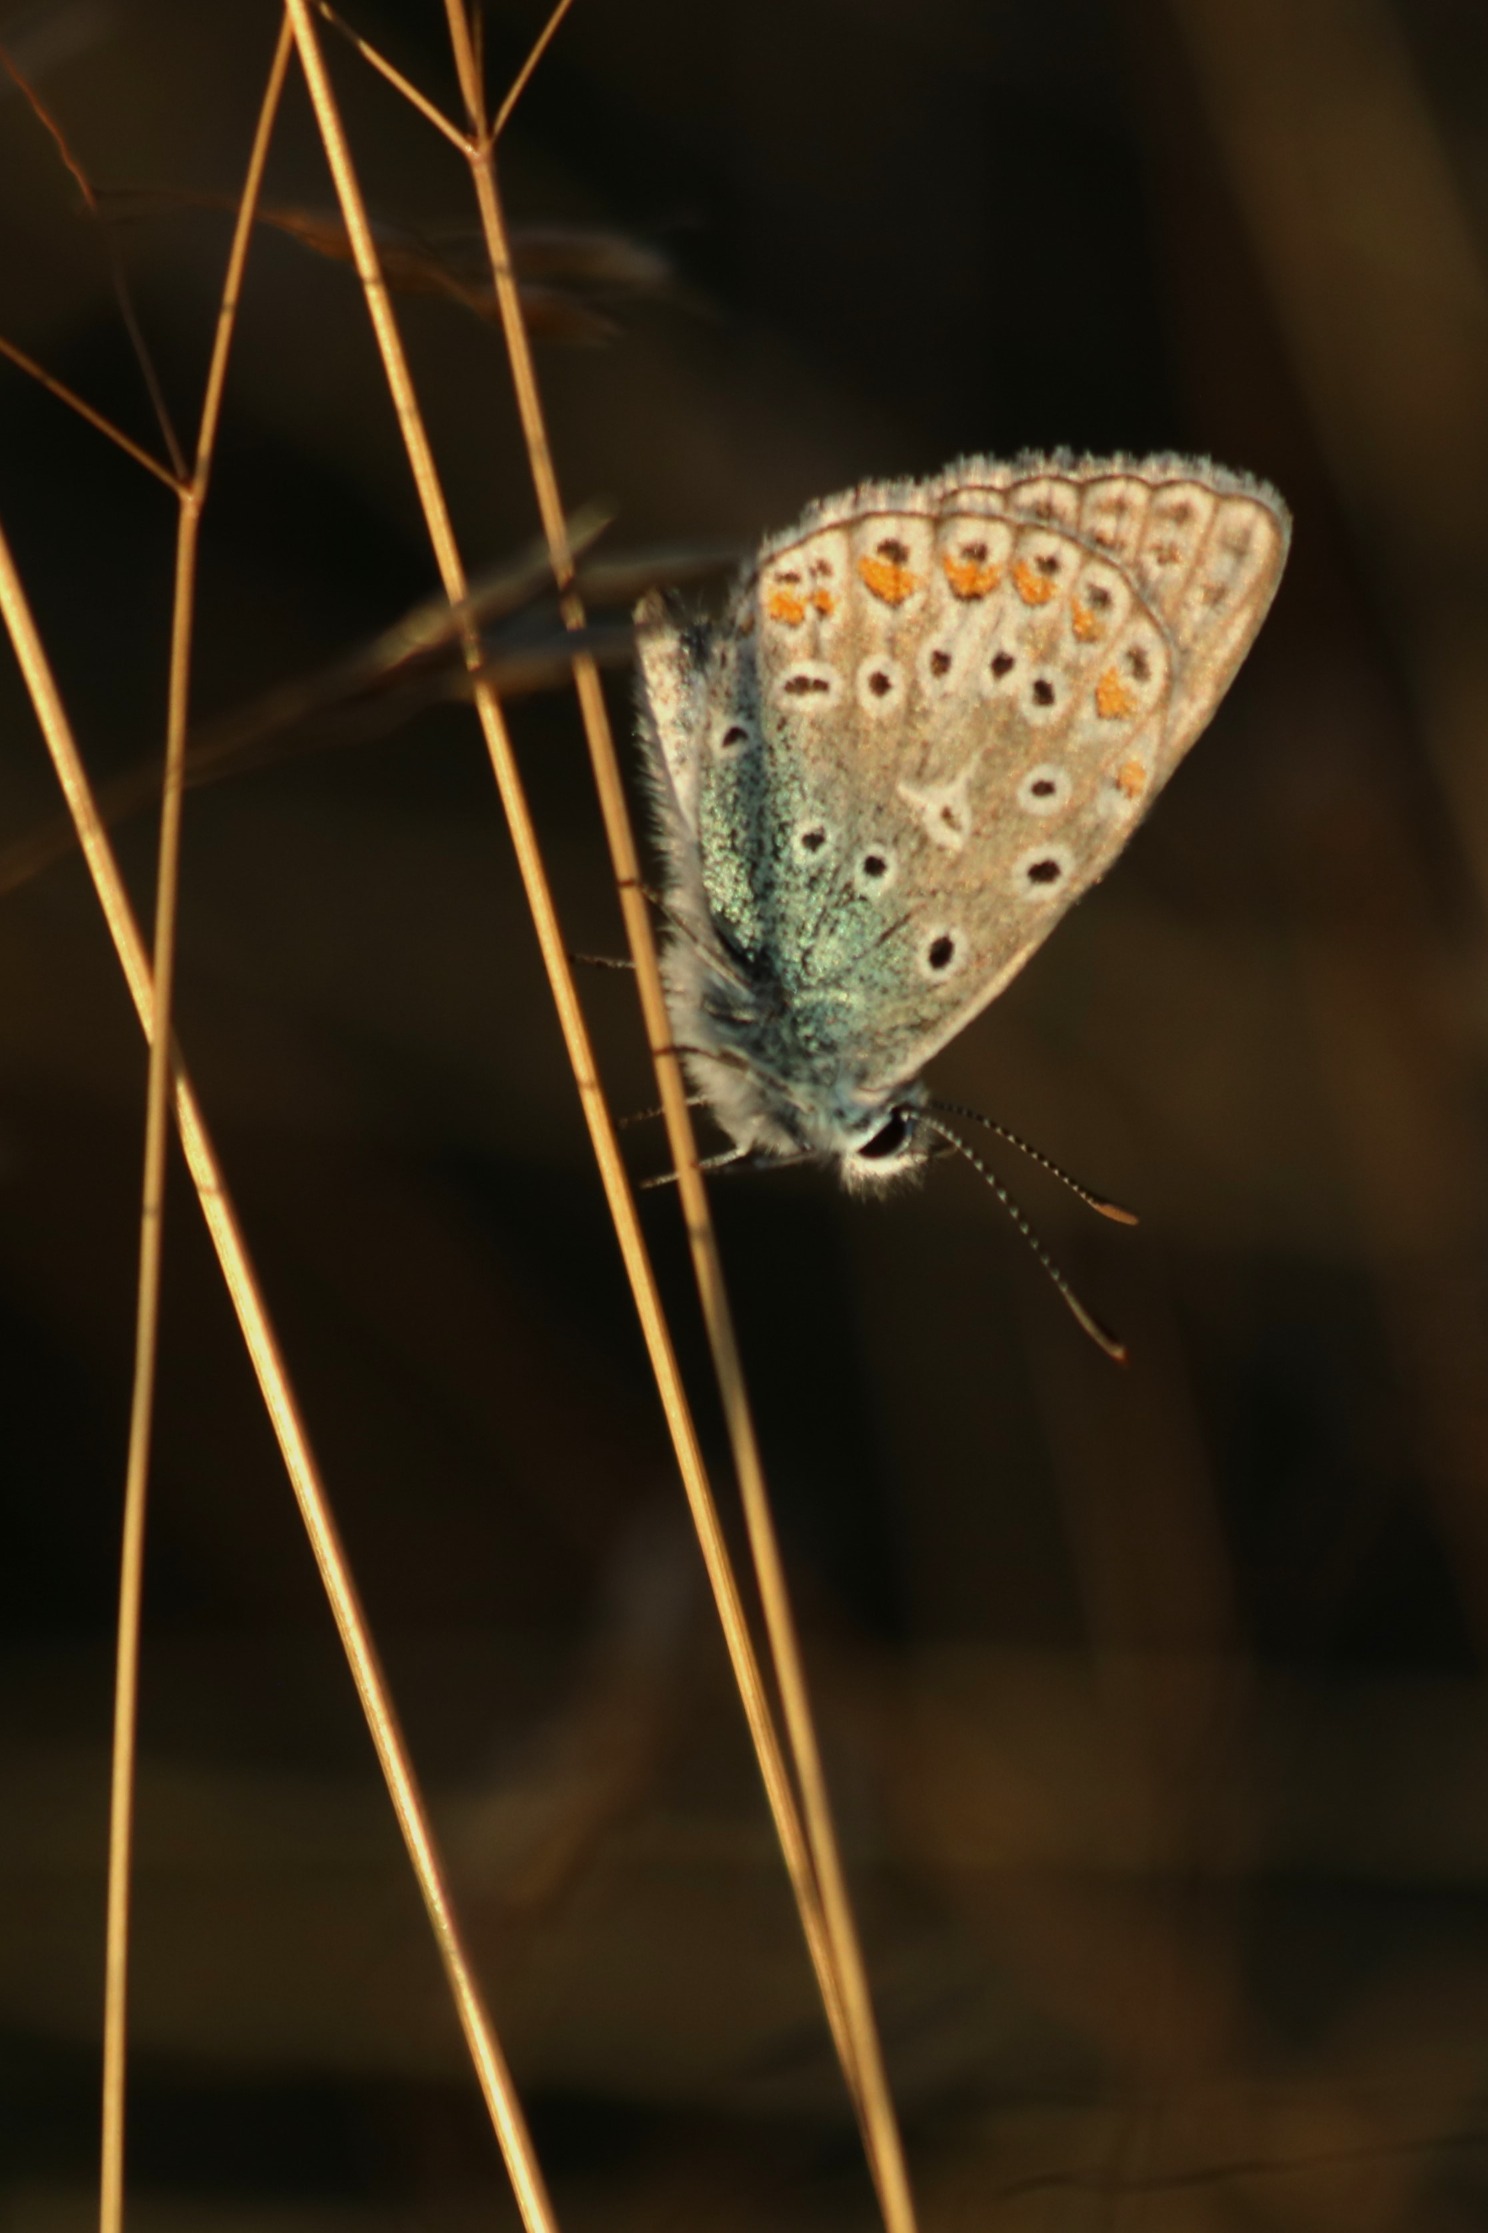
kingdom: Animalia
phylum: Arthropoda
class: Insecta
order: Lepidoptera
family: Lycaenidae
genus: Polyommatus
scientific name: Polyommatus icarus
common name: Almindelig blåfugl
